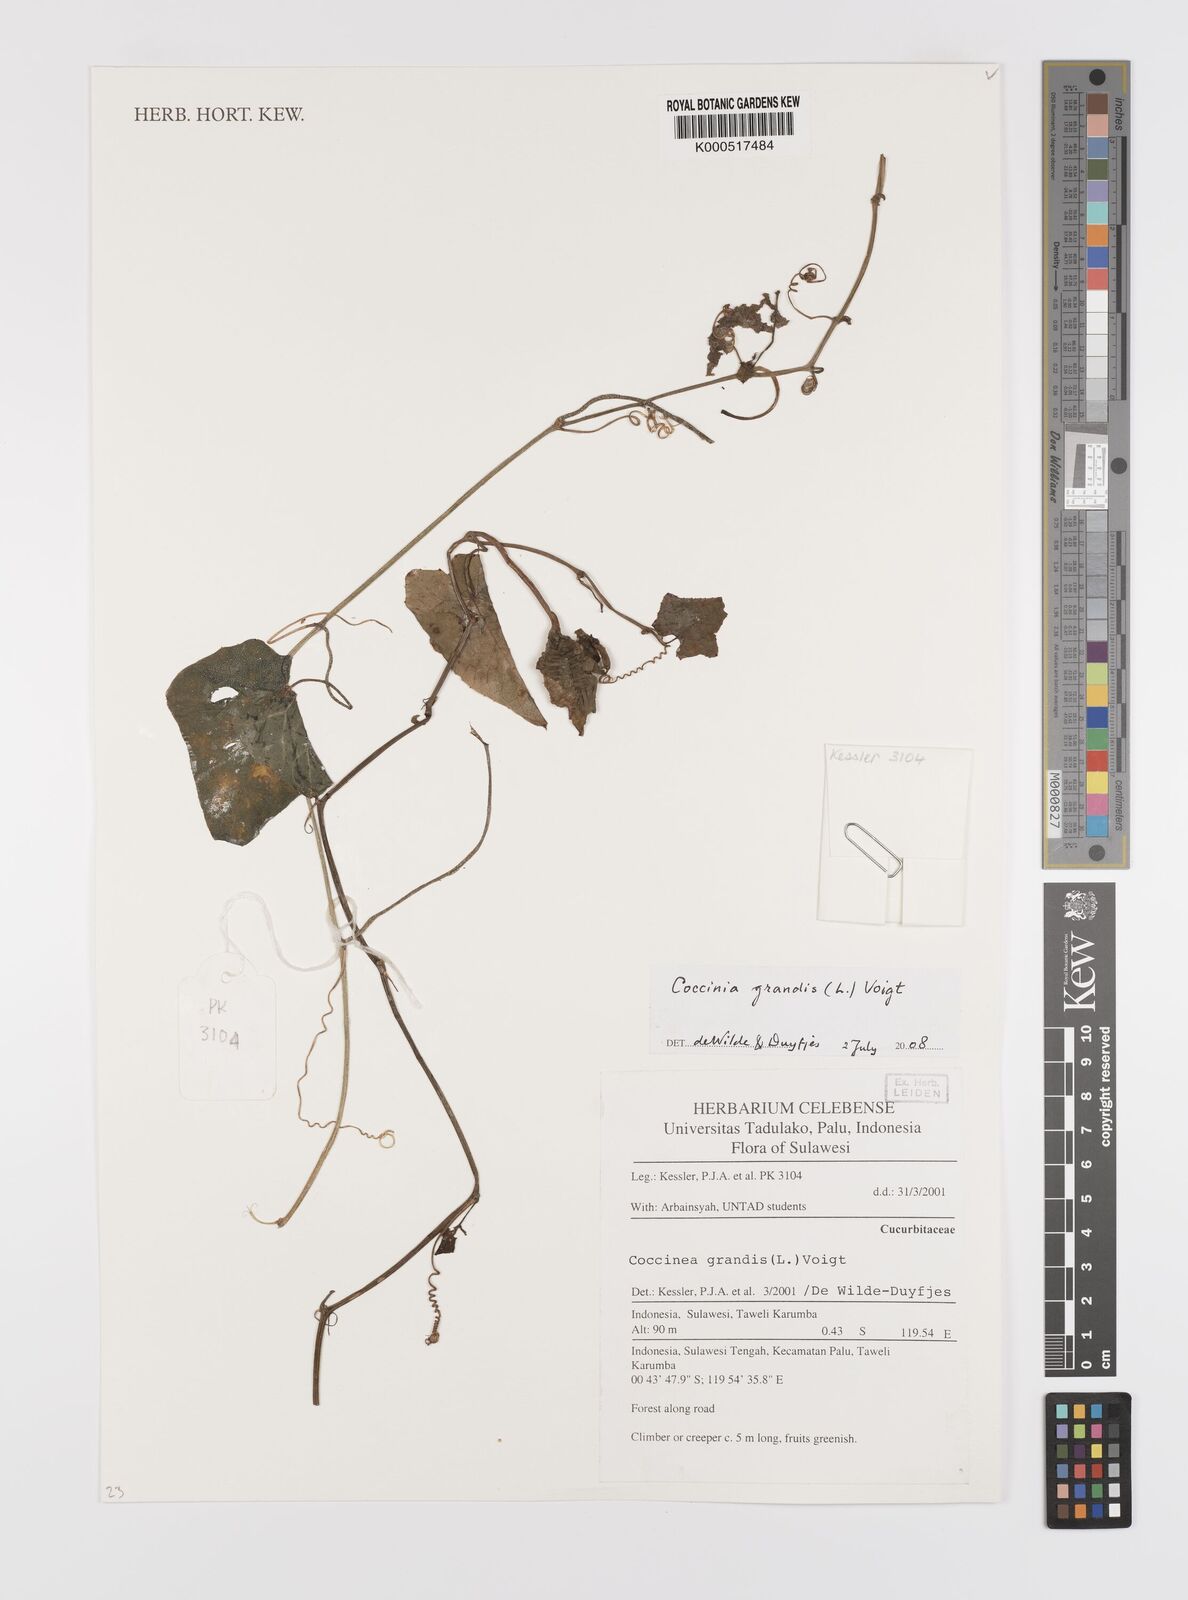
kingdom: Plantae
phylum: Tracheophyta
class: Magnoliopsida
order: Cucurbitales
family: Cucurbitaceae
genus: Coccinia
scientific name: Coccinia grandis
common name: Ivy gourd
